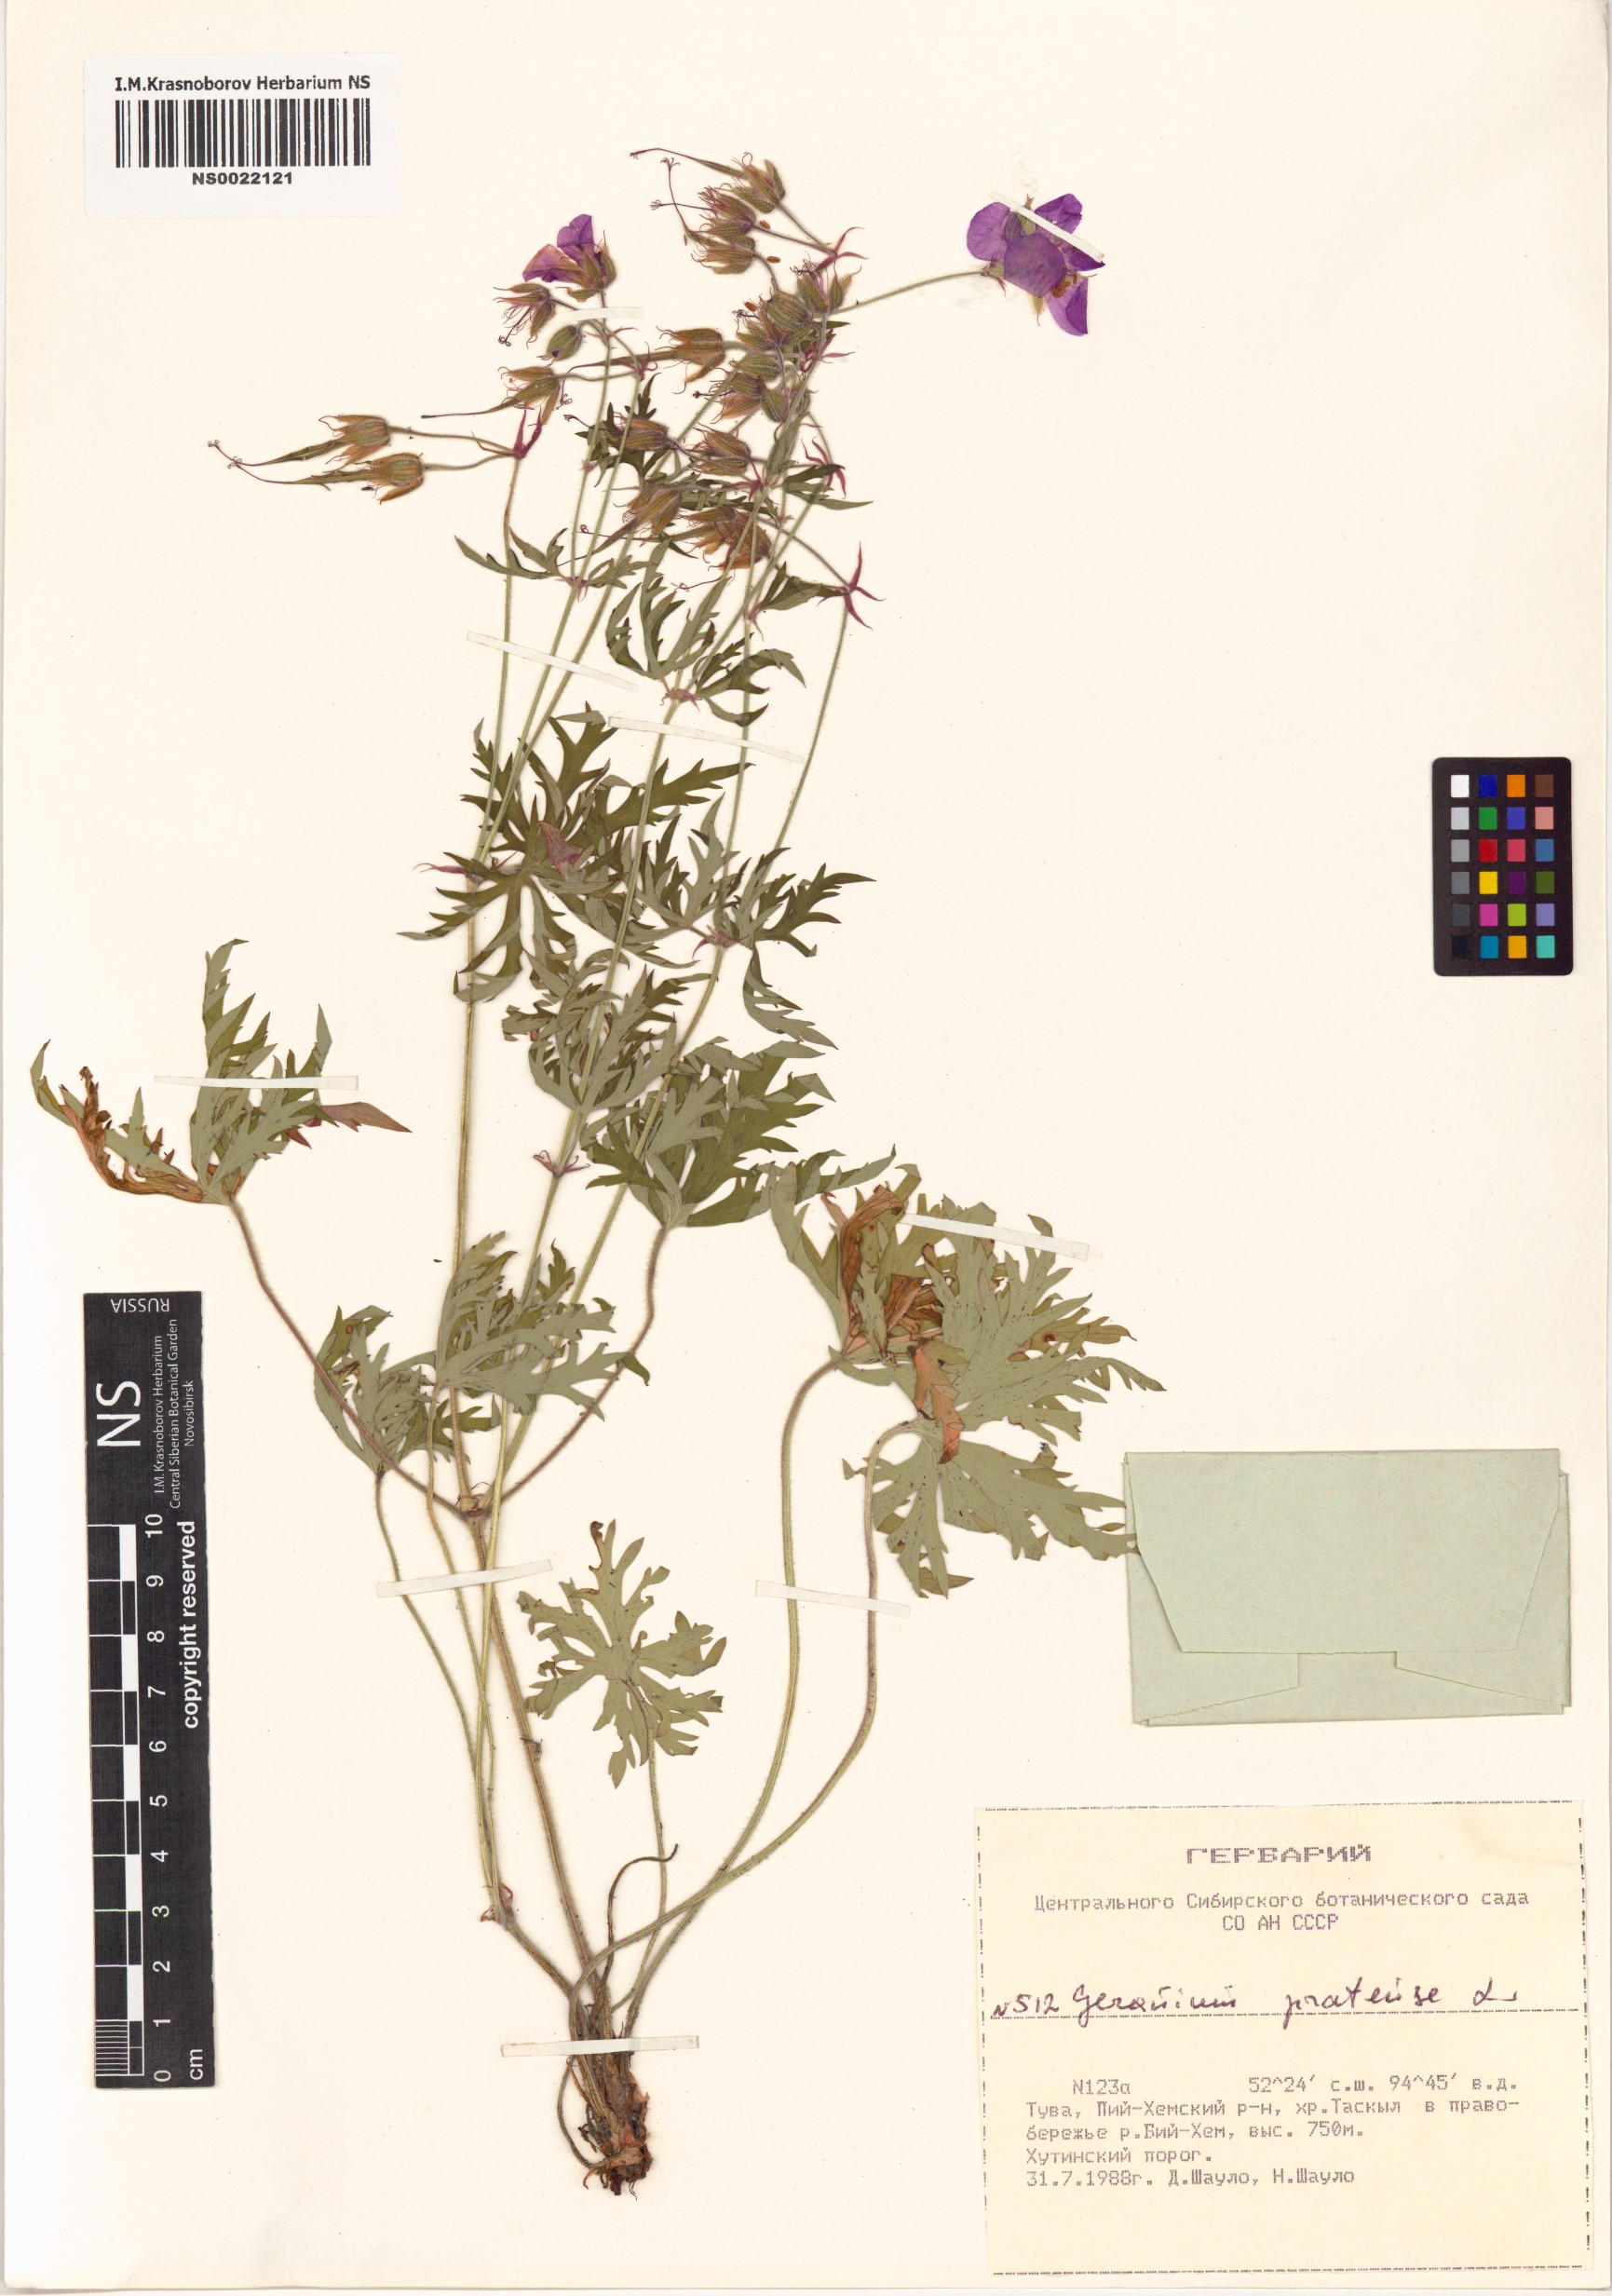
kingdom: Plantae
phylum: Tracheophyta
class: Magnoliopsida
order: Geraniales
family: Geraniaceae
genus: Geranium
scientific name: Geranium pratense
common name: Meadow crane's-bill
